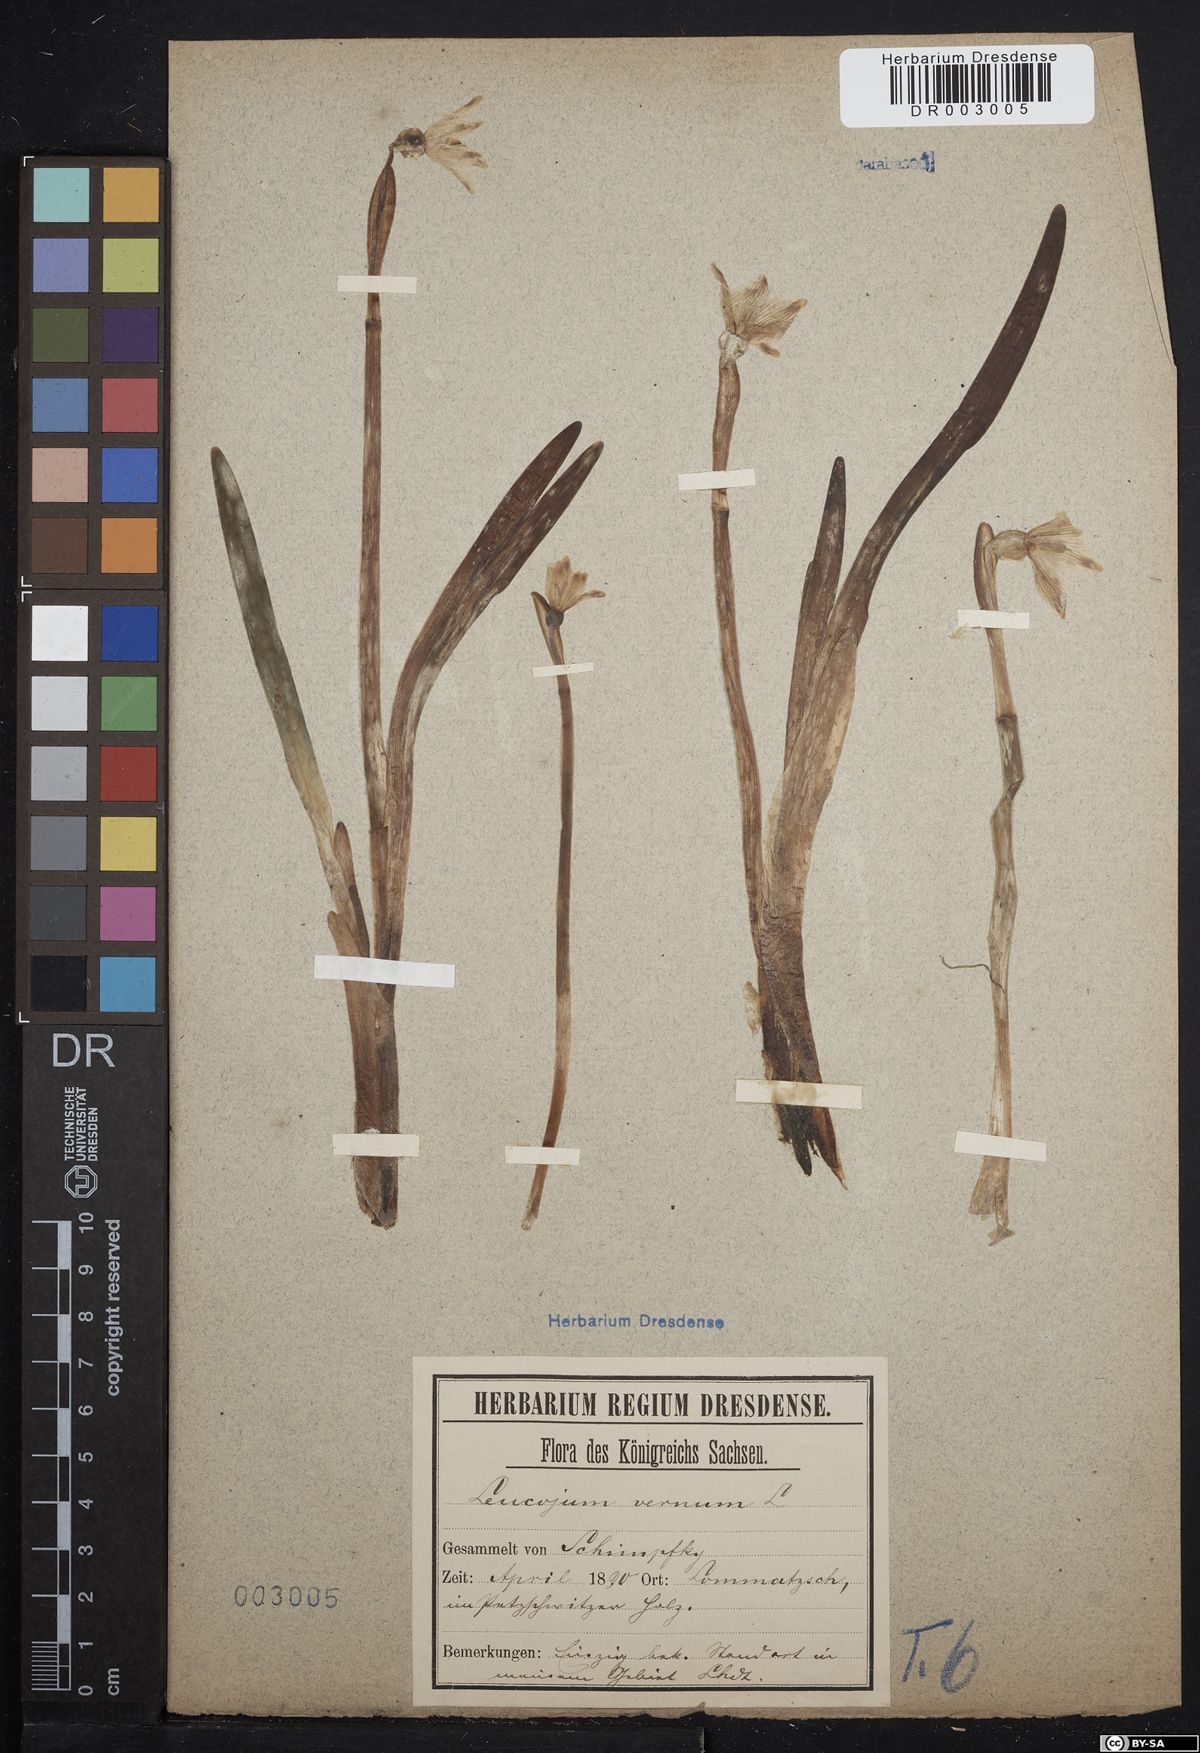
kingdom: Plantae
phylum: Tracheophyta
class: Liliopsida
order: Asparagales
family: Amaryllidaceae
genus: Leucojum
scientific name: Leucojum vernum
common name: Spring snowflake
